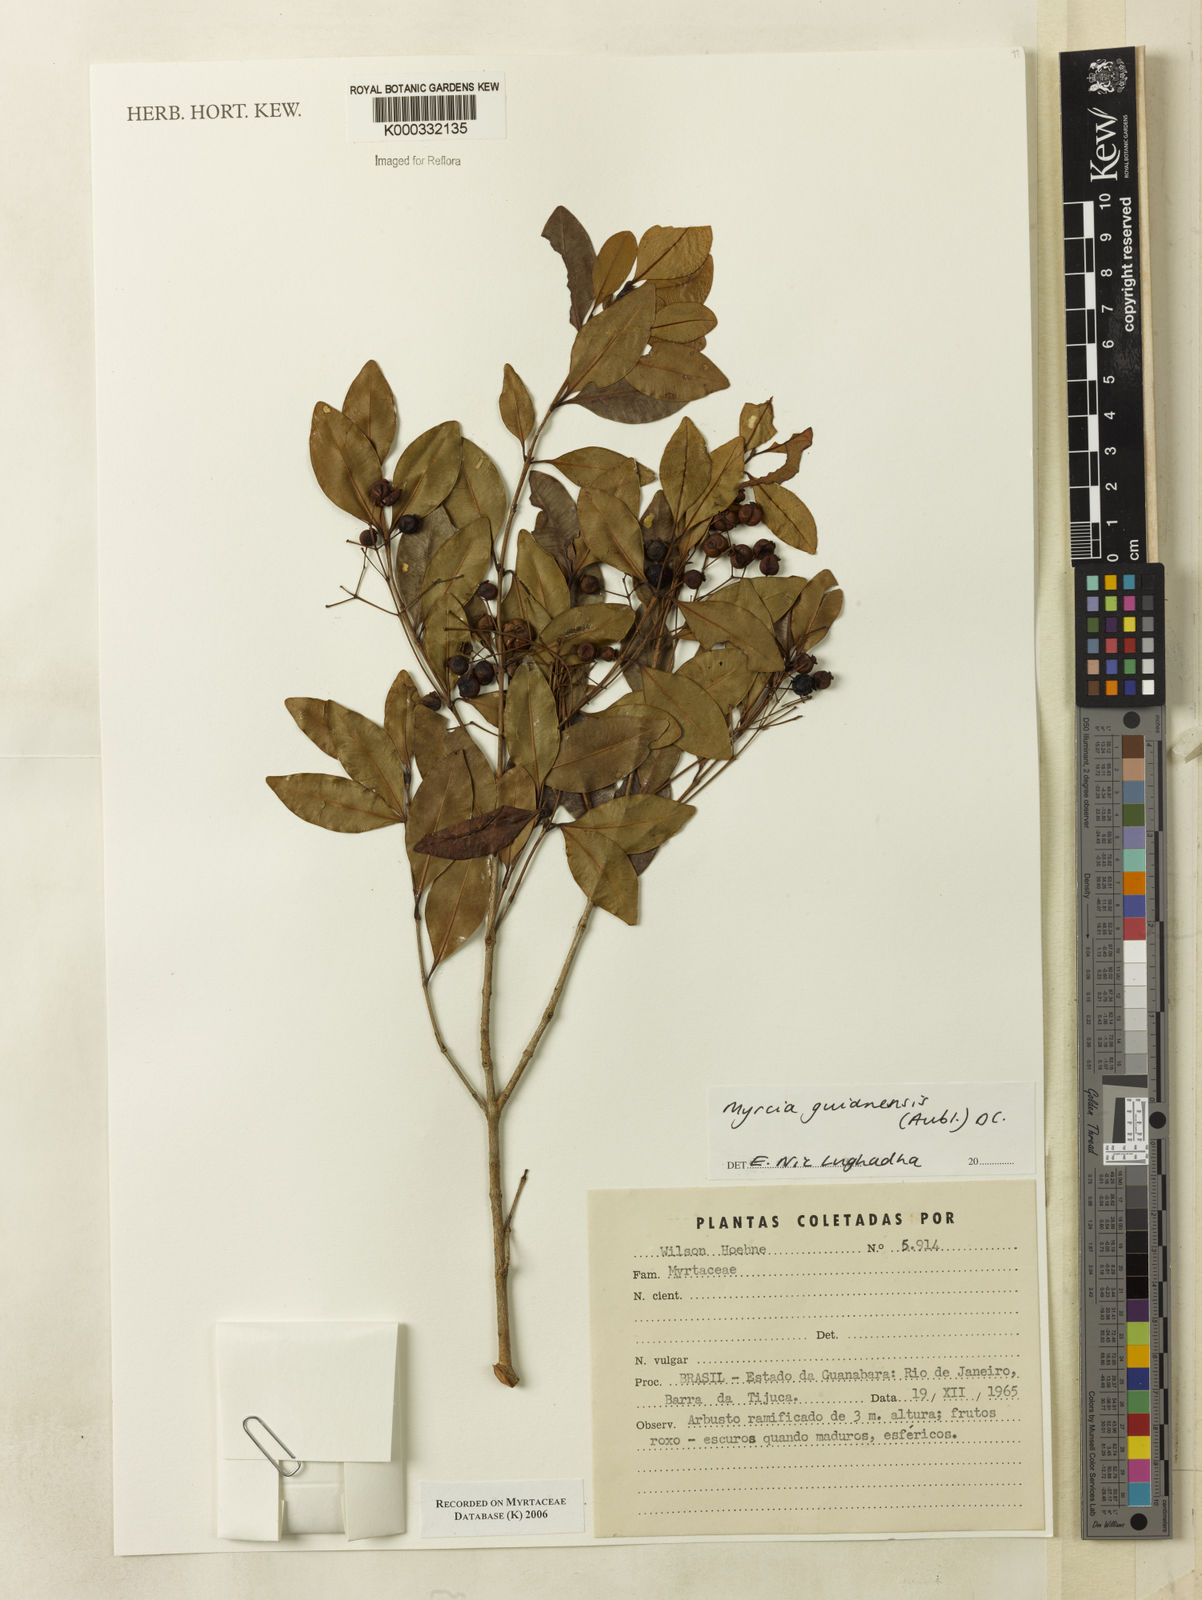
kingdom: Plantae
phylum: Tracheophyta
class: Magnoliopsida
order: Myrtales
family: Myrtaceae
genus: Myrcia
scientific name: Myrcia guianensis
